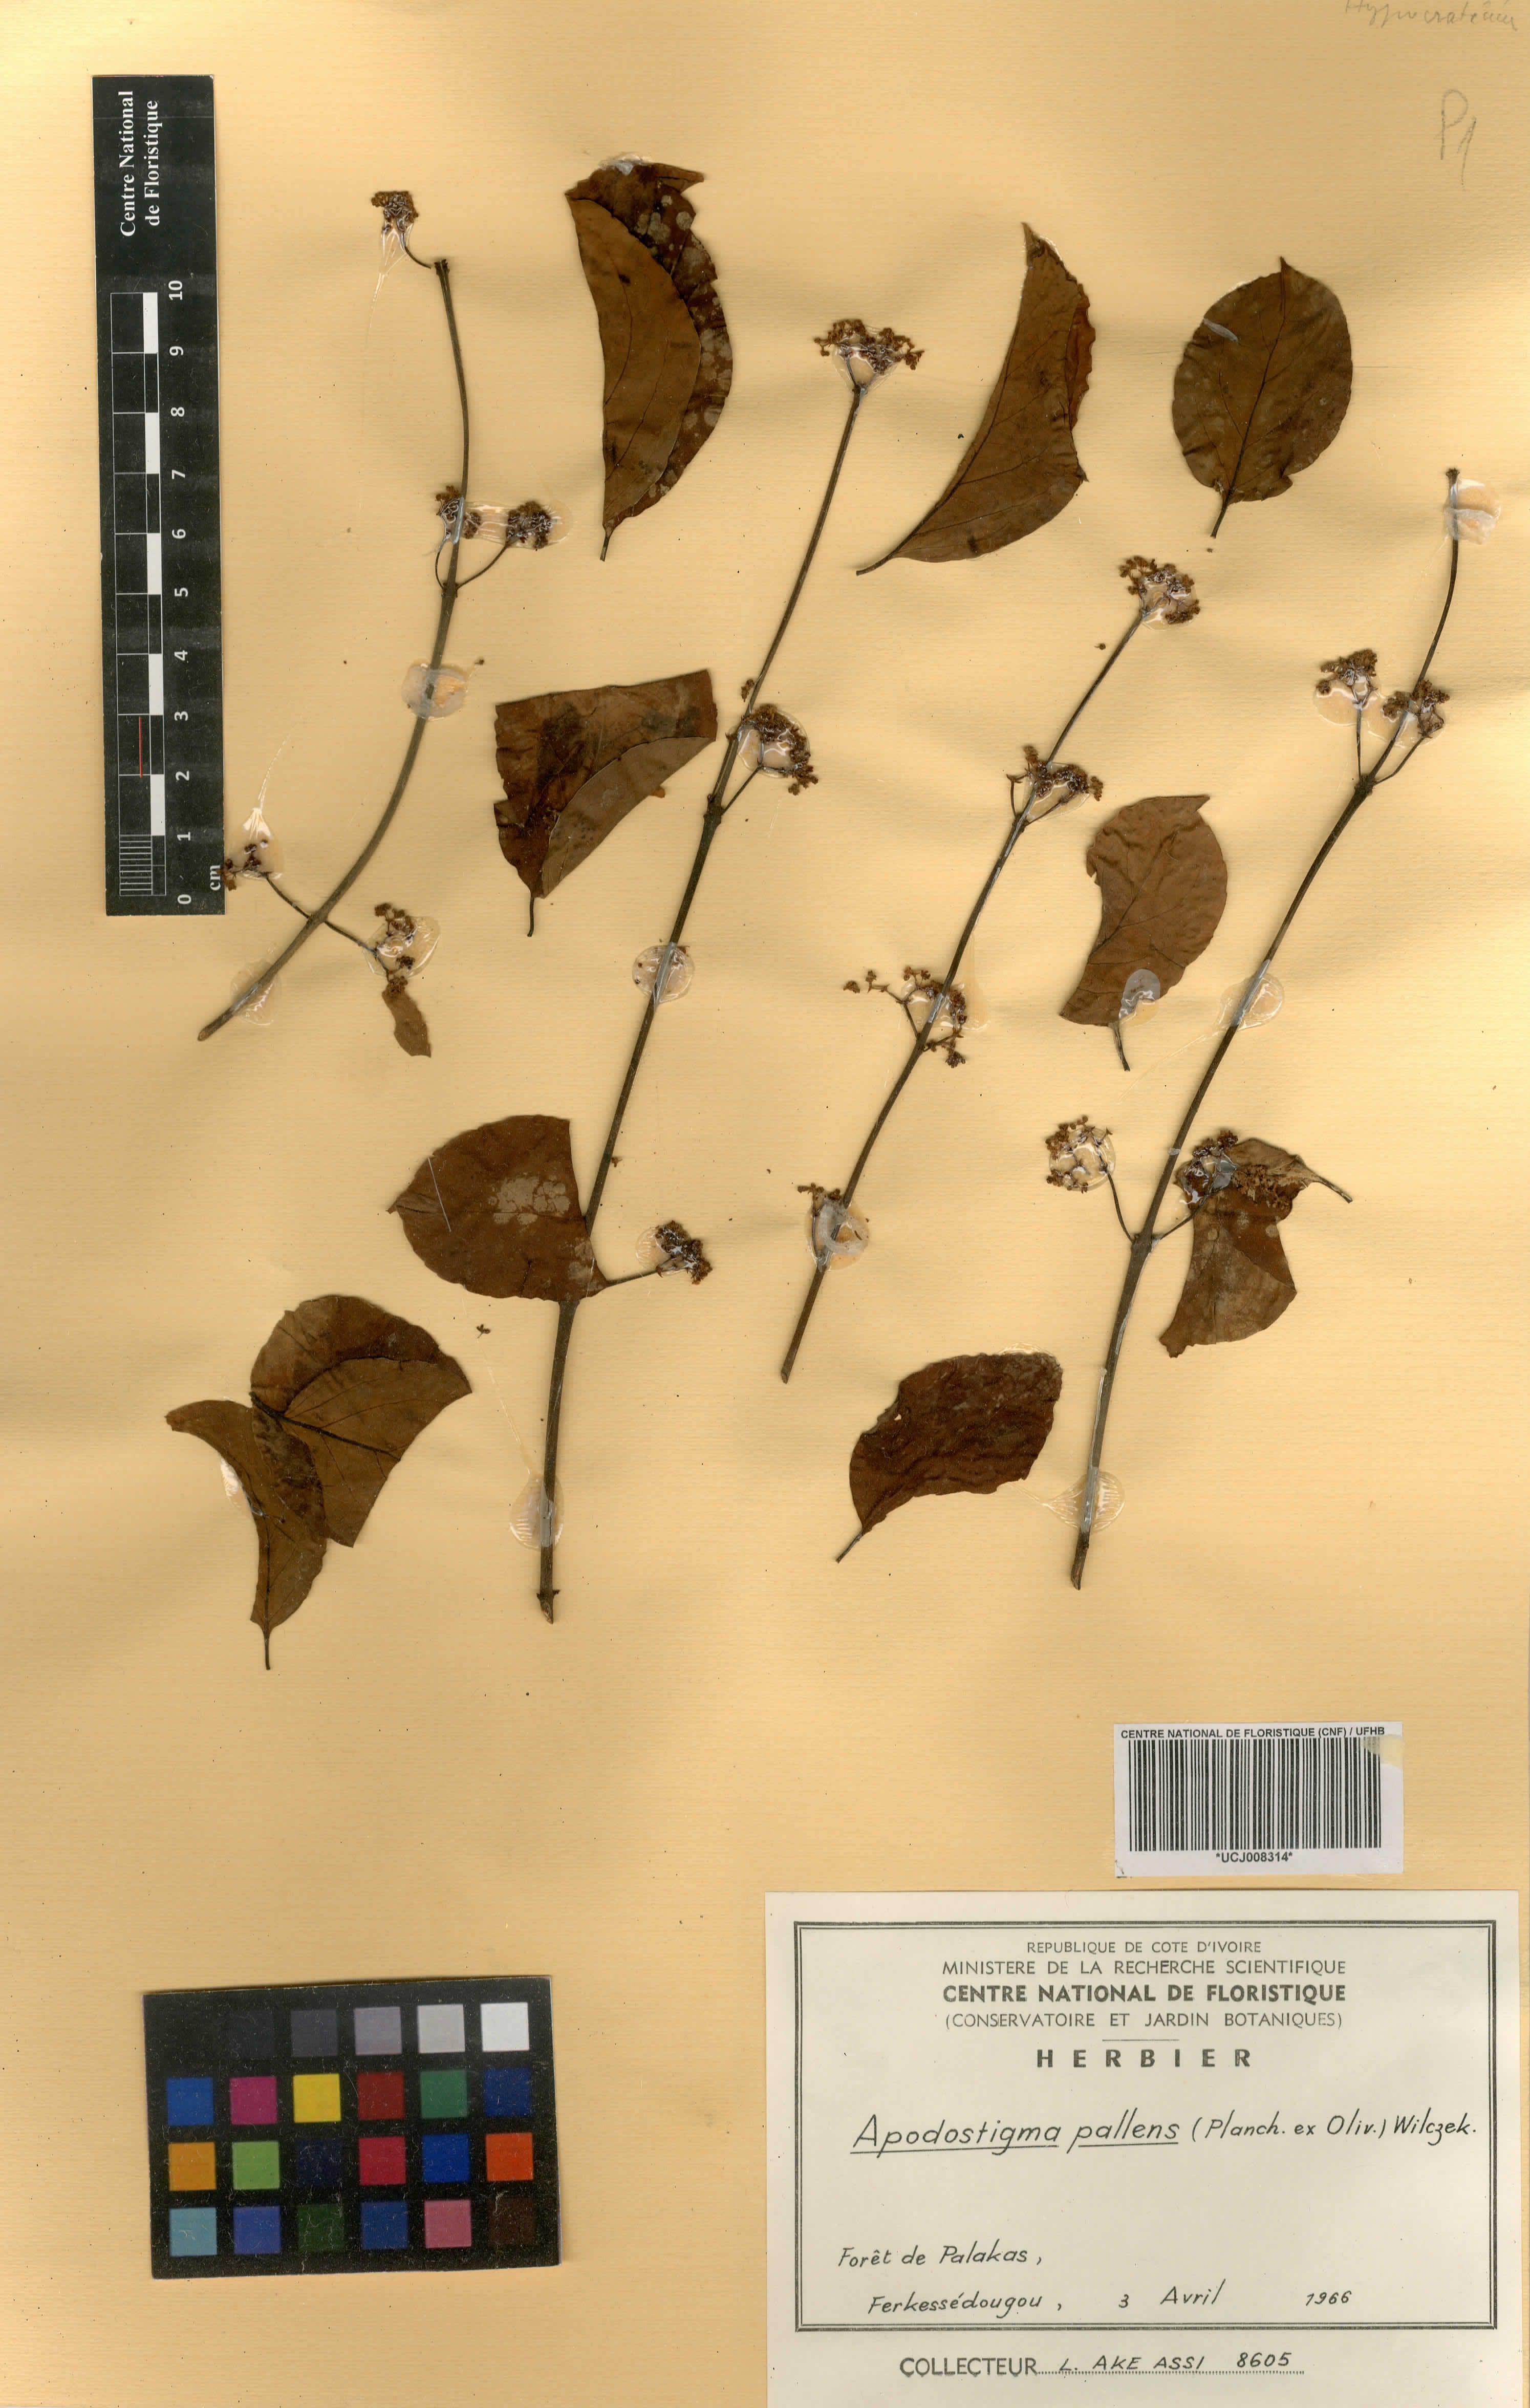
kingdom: Plantae
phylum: Tracheophyta
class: Magnoliopsida
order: Celastrales
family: Celastraceae
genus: Apodostigma
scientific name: Apodostigma pallens
